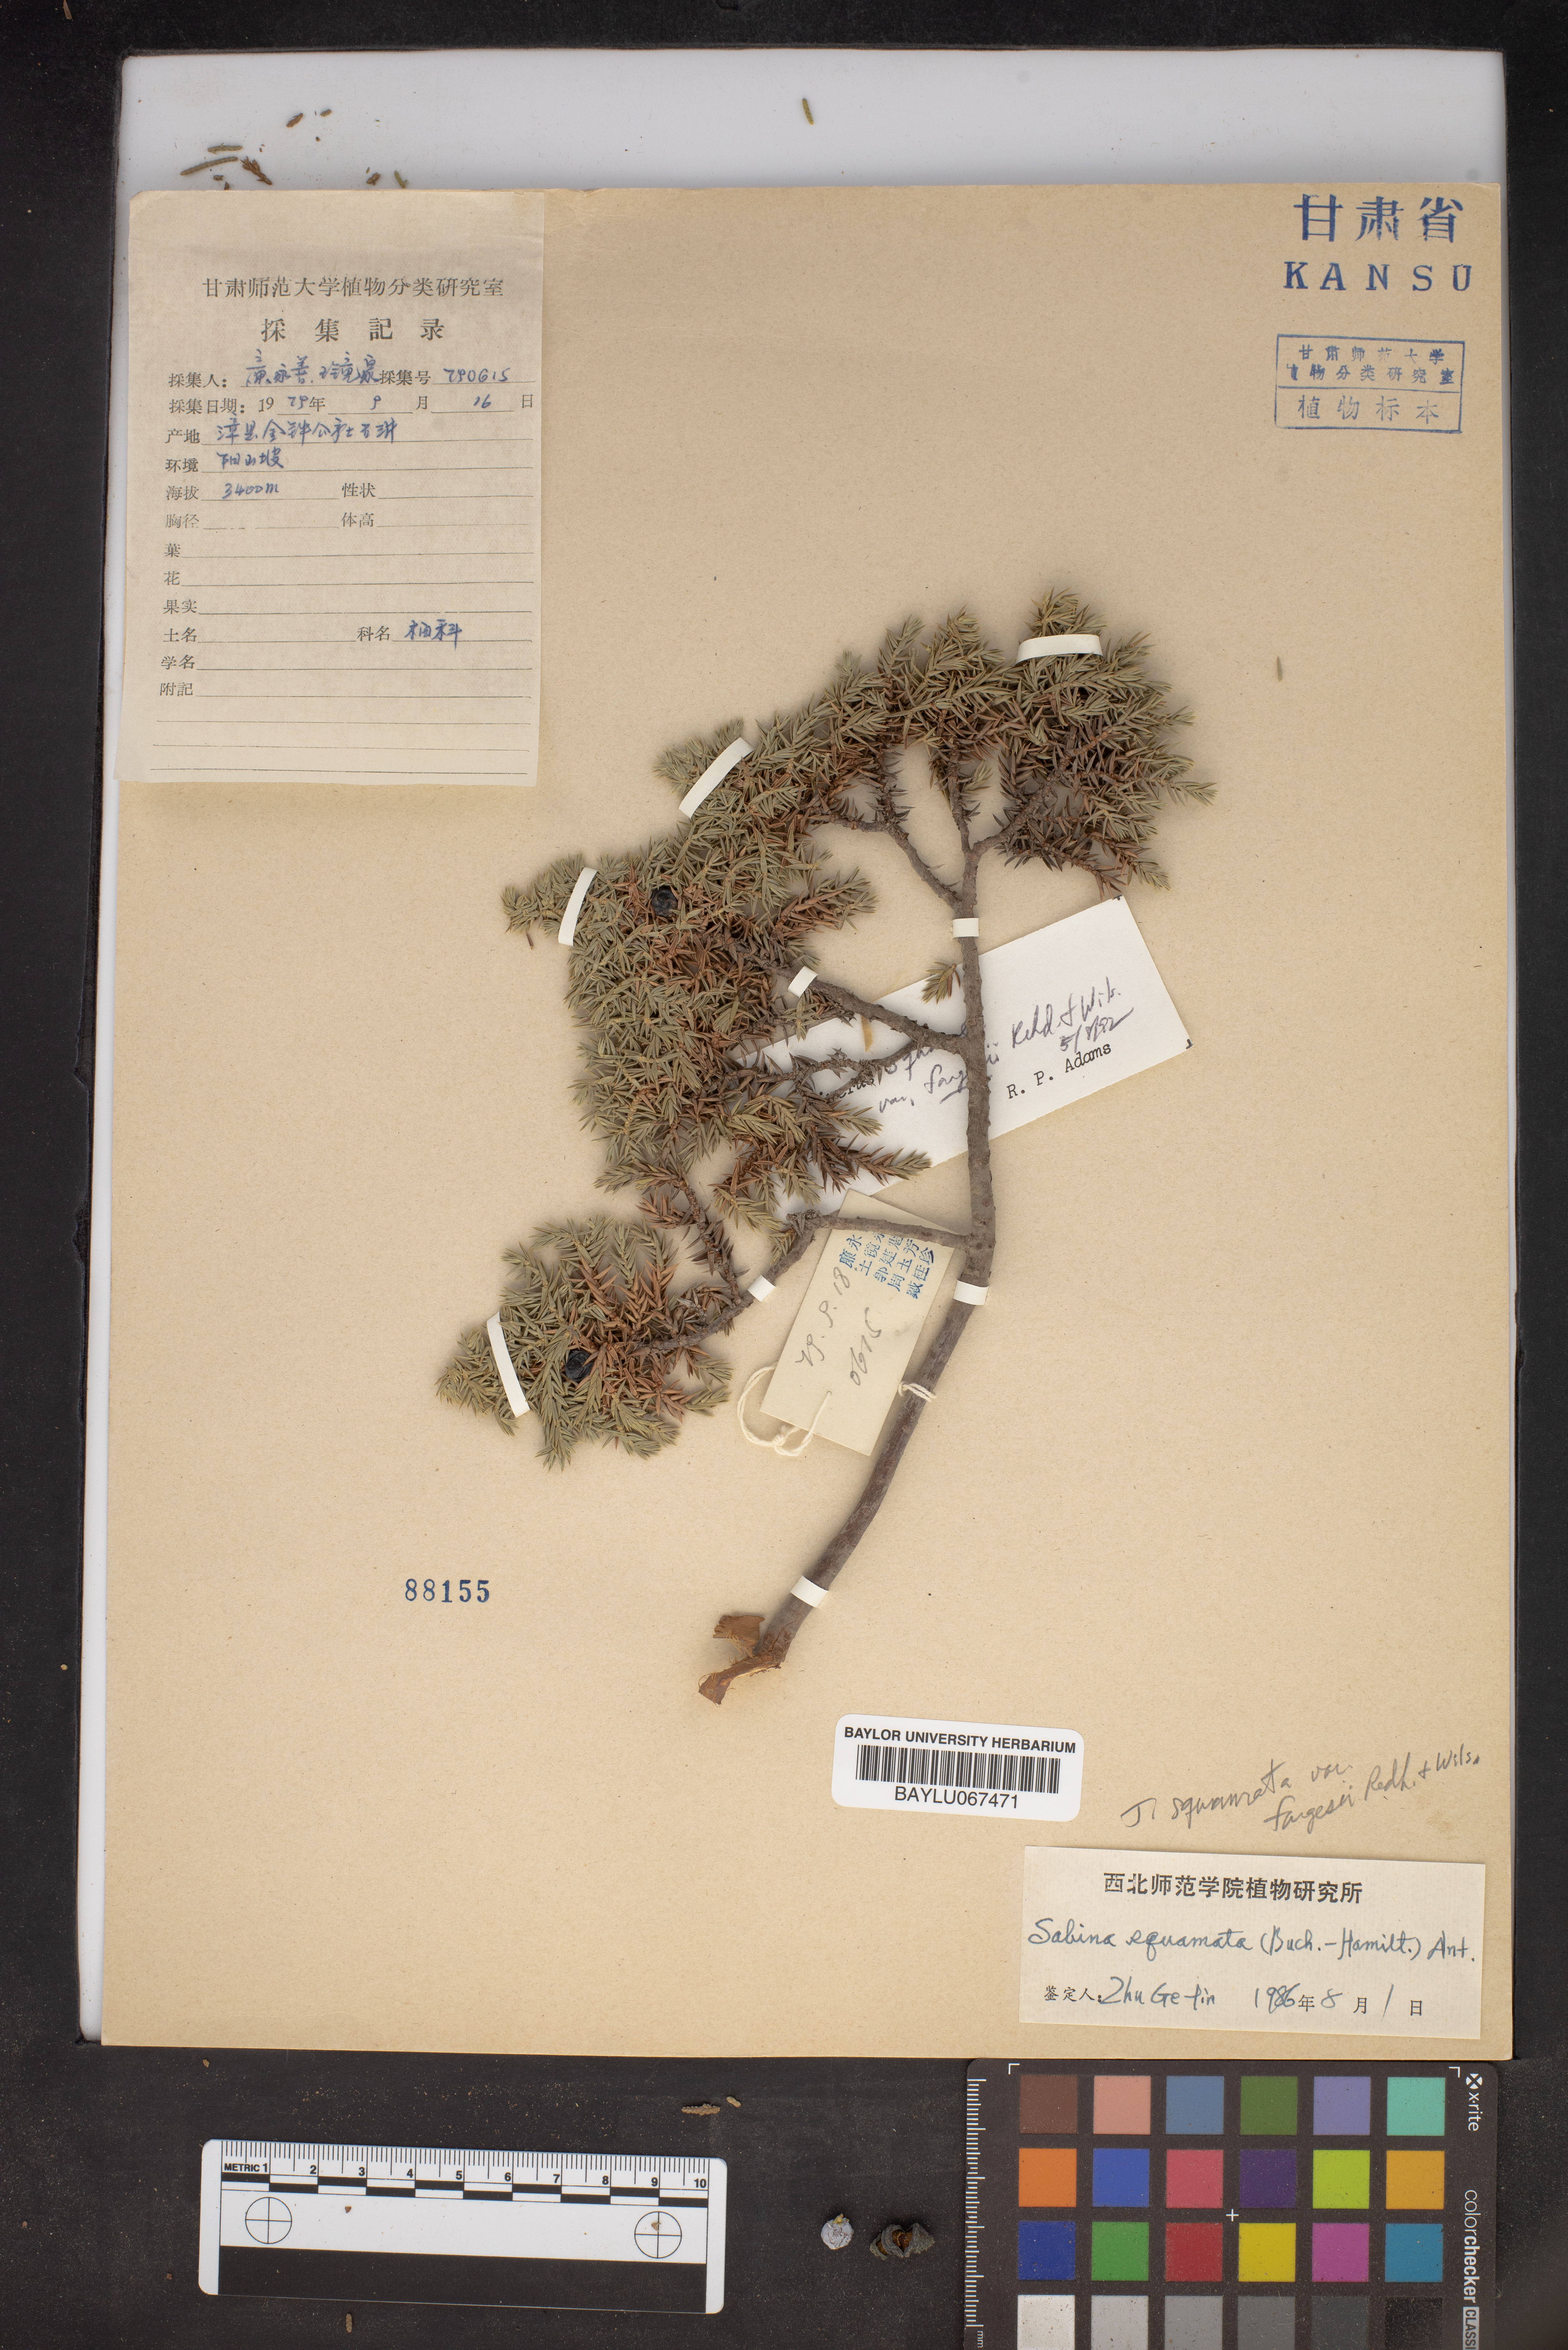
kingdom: Plantae
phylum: Tracheophyta
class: Pinopsida
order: Pinales
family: Cupressaceae
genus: Juniperus
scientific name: Juniperus squamata
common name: Flaky juniper
